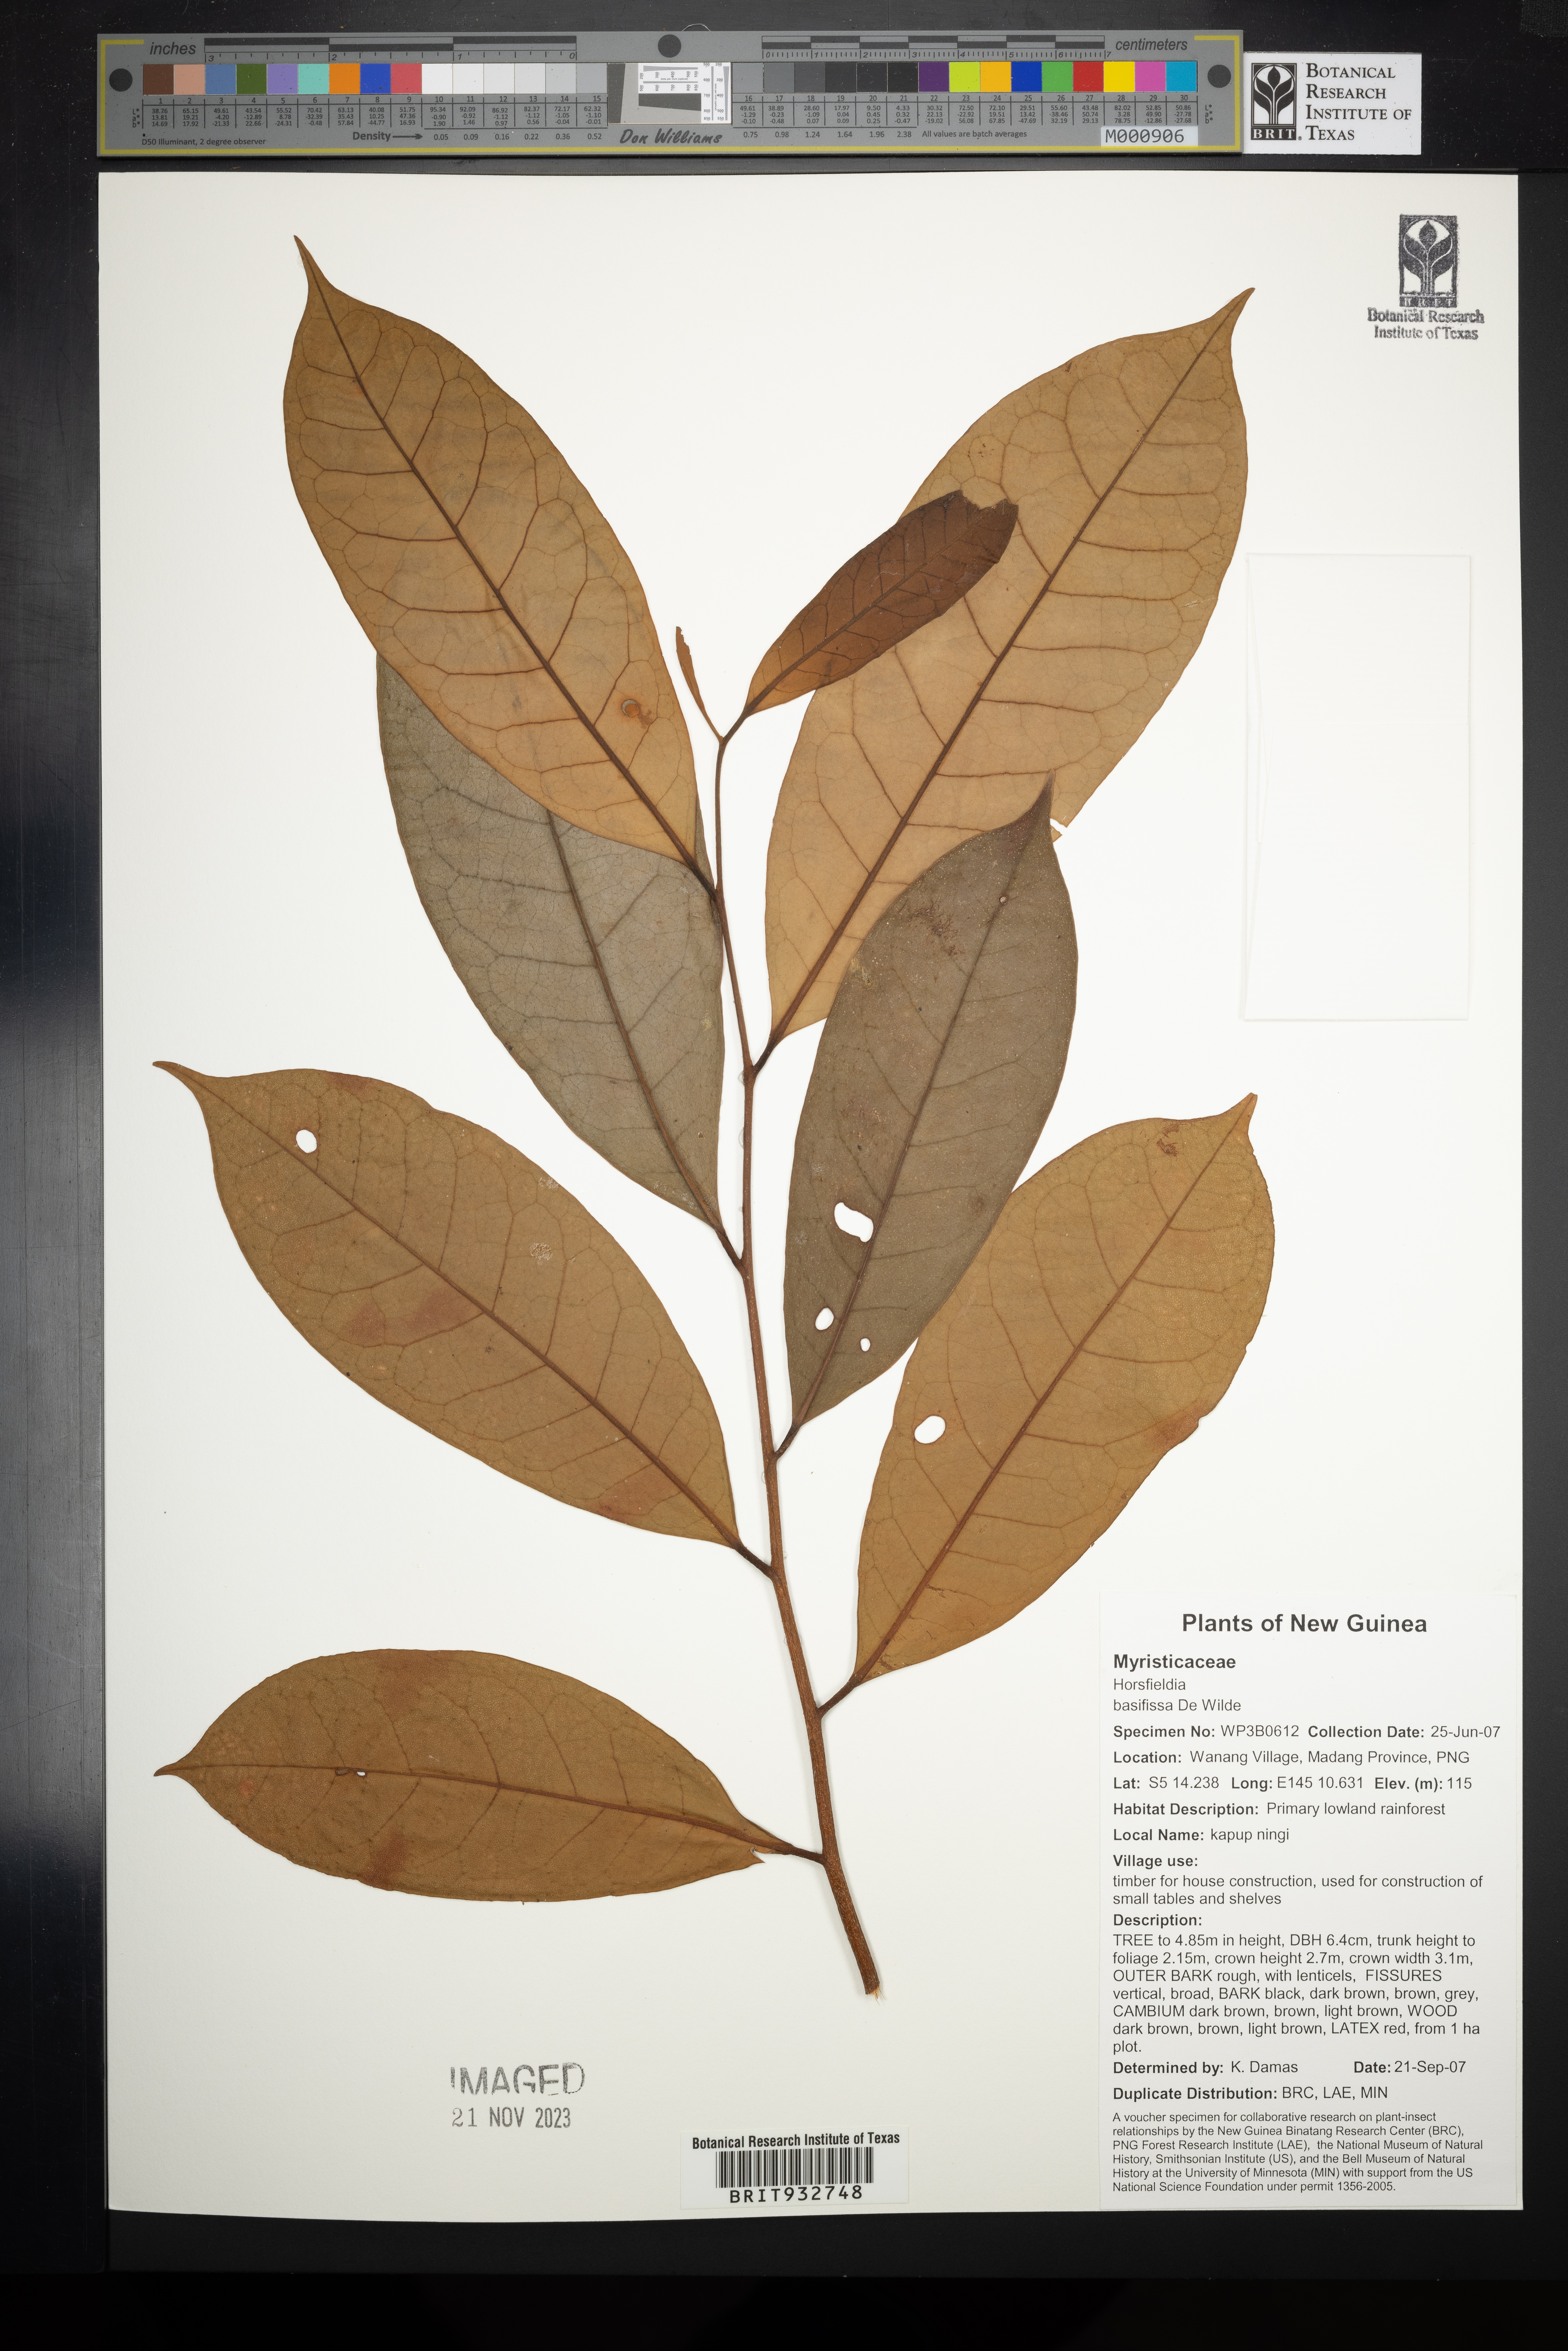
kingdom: Plantae
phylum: Tracheophyta
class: Magnoliopsida
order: Magnoliales
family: Myristicaceae
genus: Horsfieldia
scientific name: Horsfieldia
